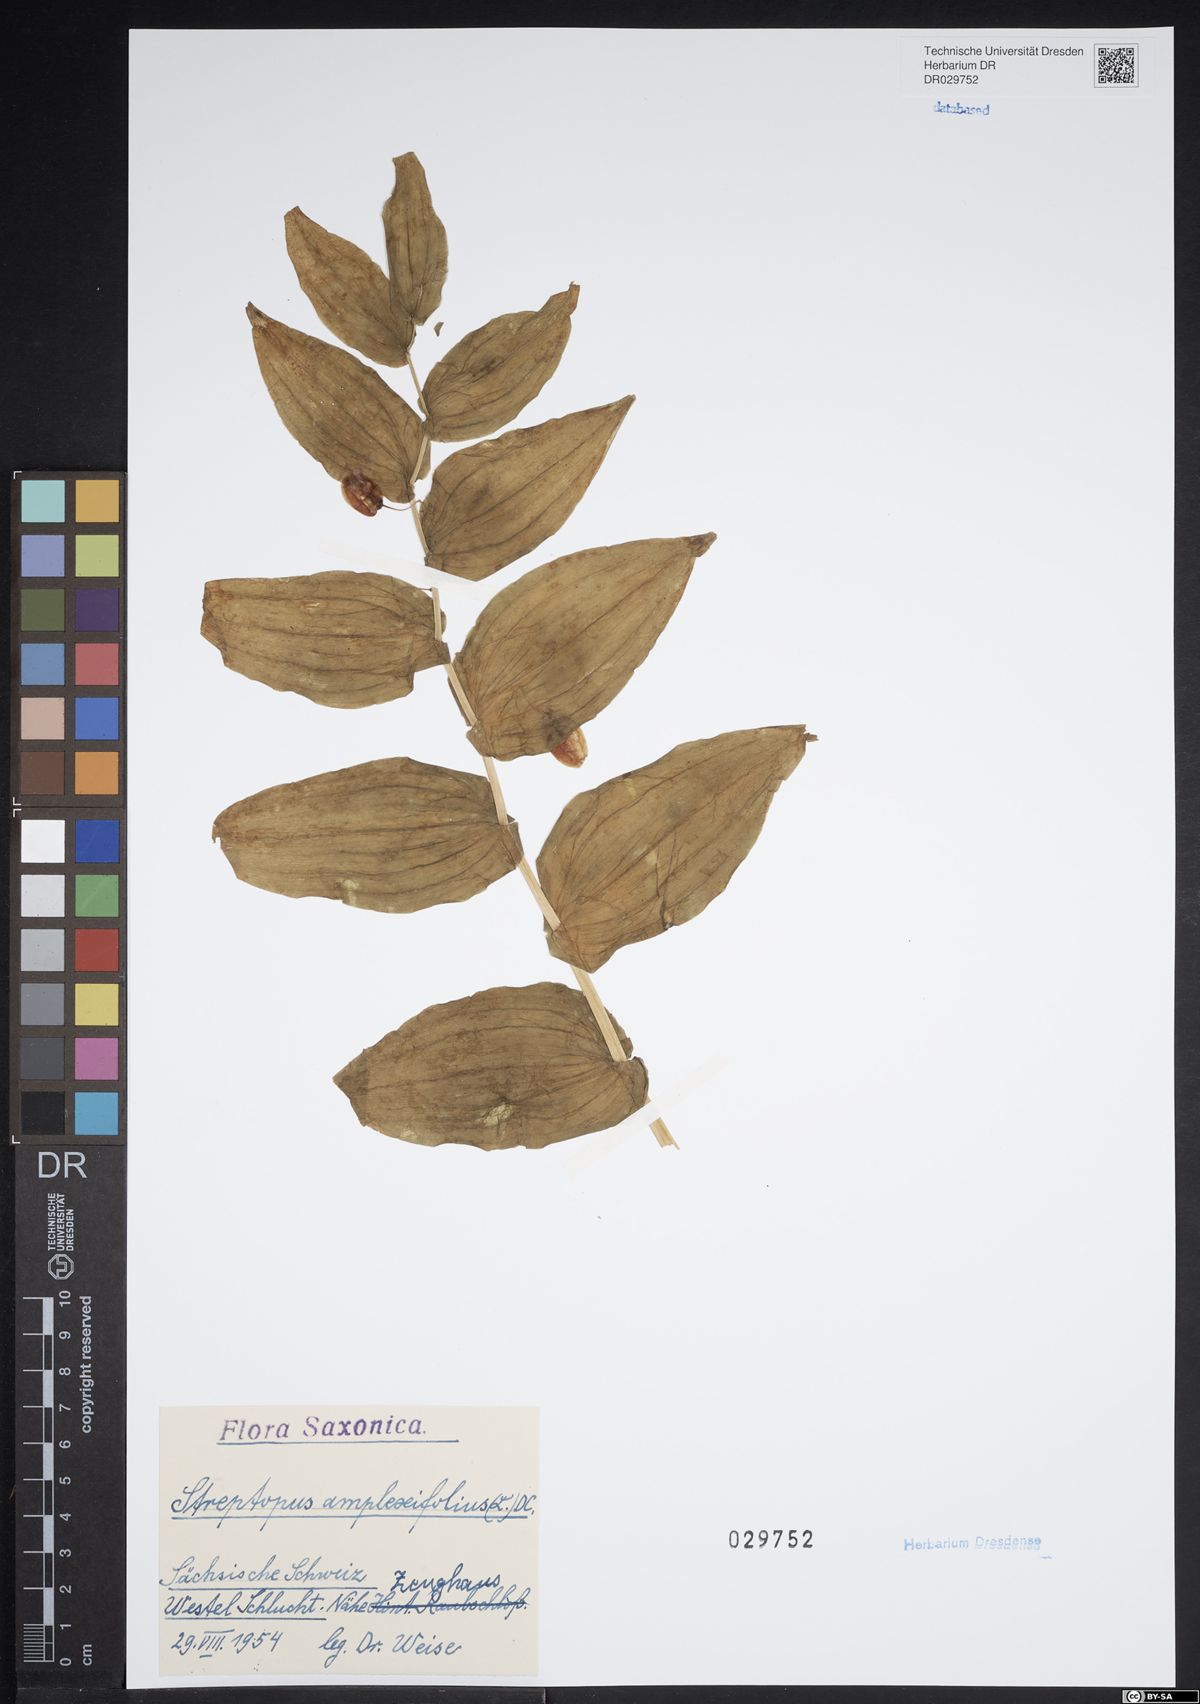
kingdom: Plantae
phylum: Tracheophyta
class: Liliopsida
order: Liliales
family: Liliaceae
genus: Streptopus
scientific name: Streptopus amplexifolius
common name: Clasp twisted stalk
